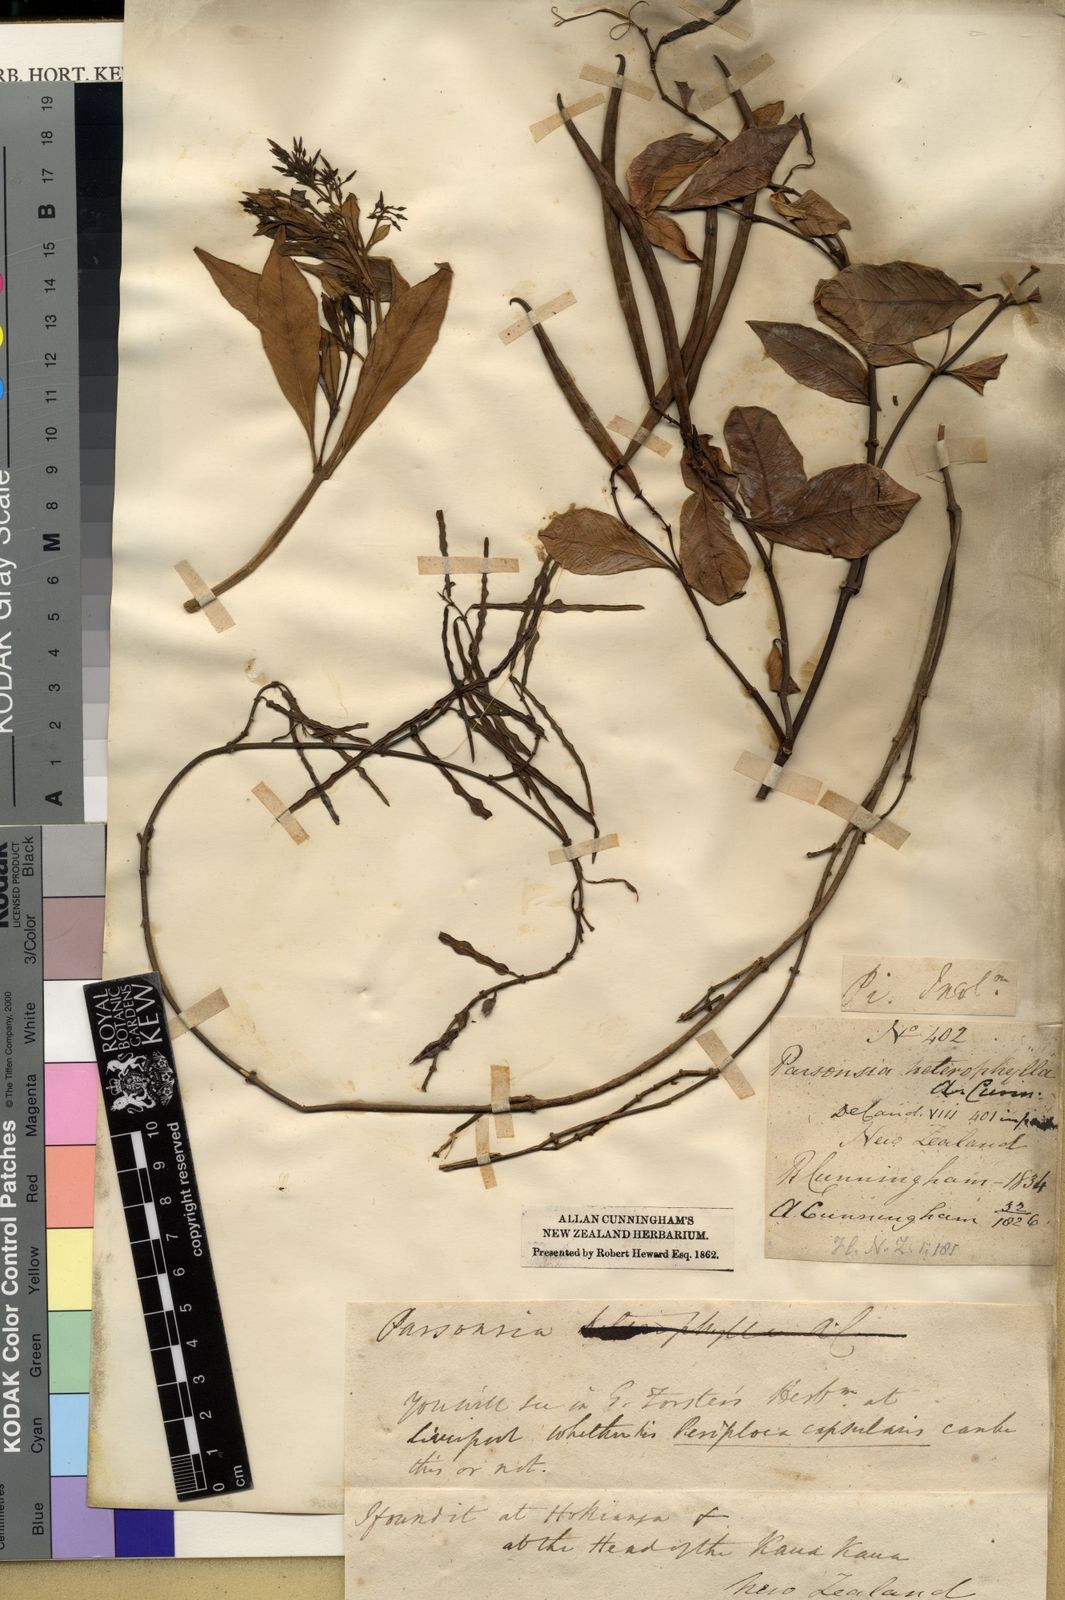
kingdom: Plantae
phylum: Tracheophyta
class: Magnoliopsida
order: Gentianales
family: Apocynaceae
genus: Parsonsia
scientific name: Parsonsia heterophylla
